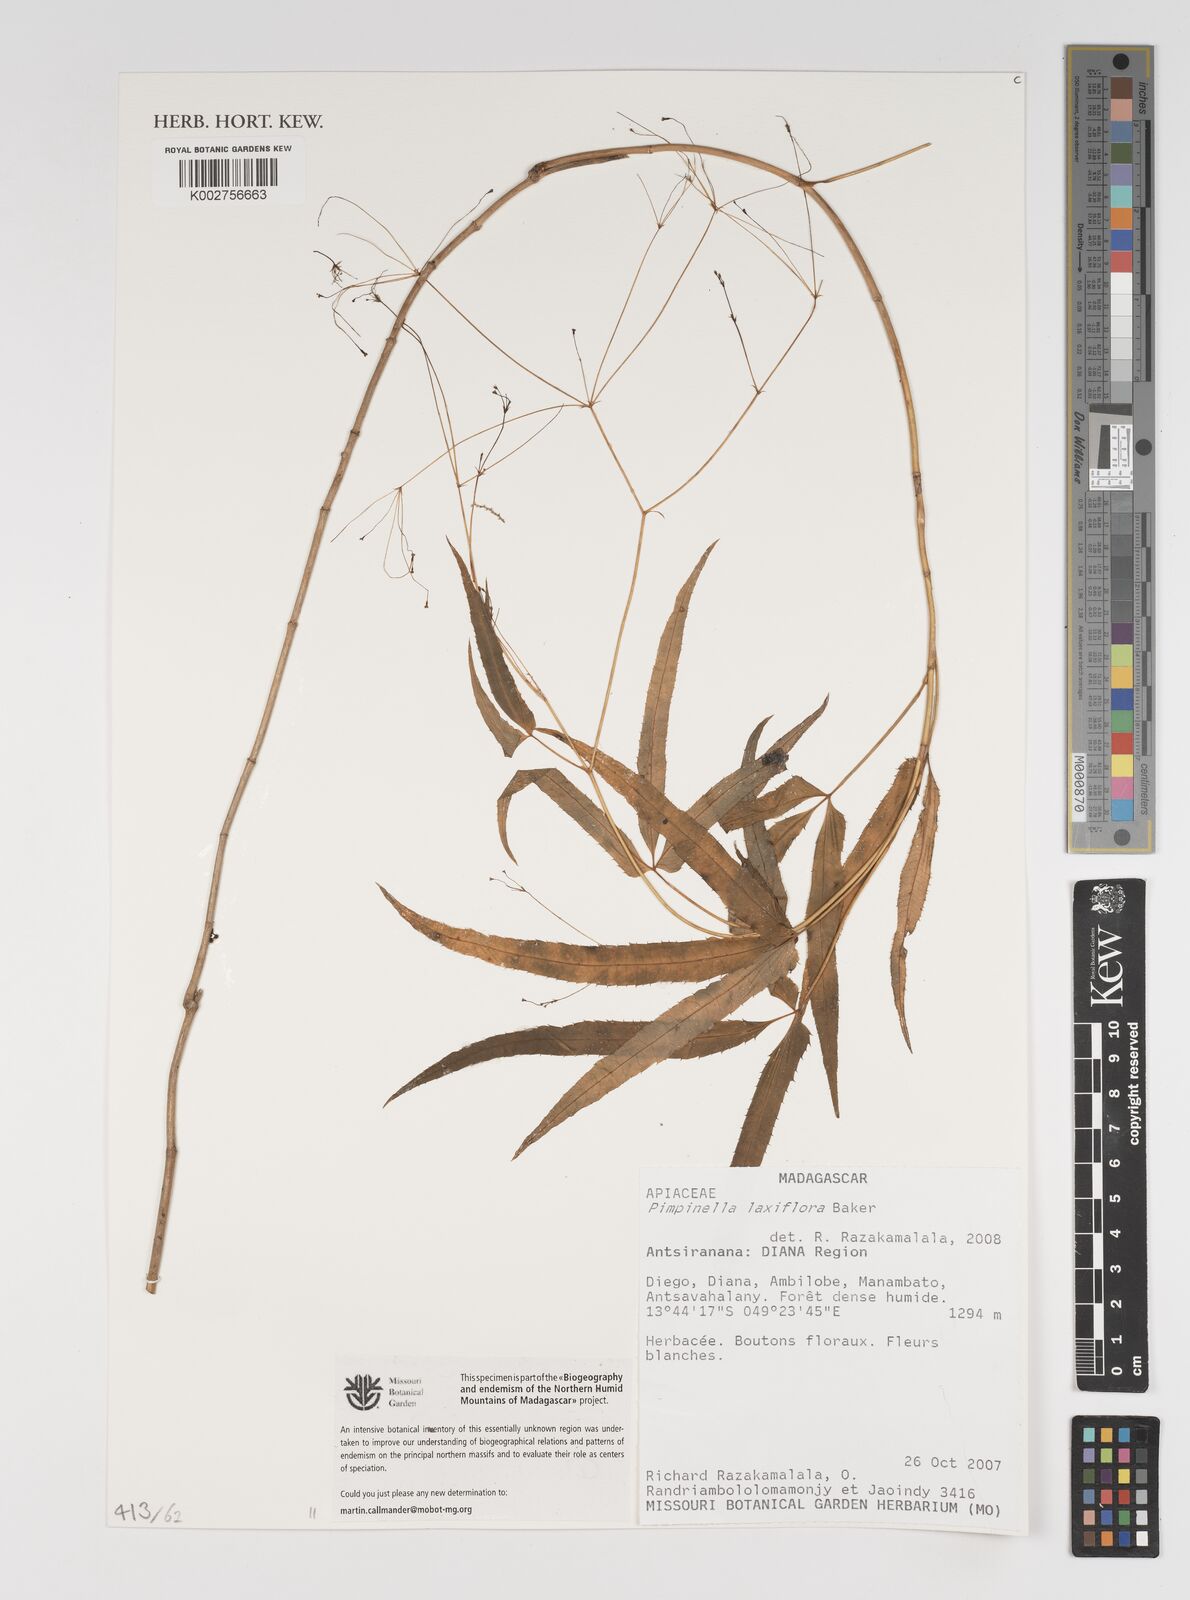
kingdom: Plantae
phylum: Tracheophyta
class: Magnoliopsida
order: Apiales
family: Apiaceae
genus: Pseudocarum
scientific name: Pseudocarum laxiflorum
